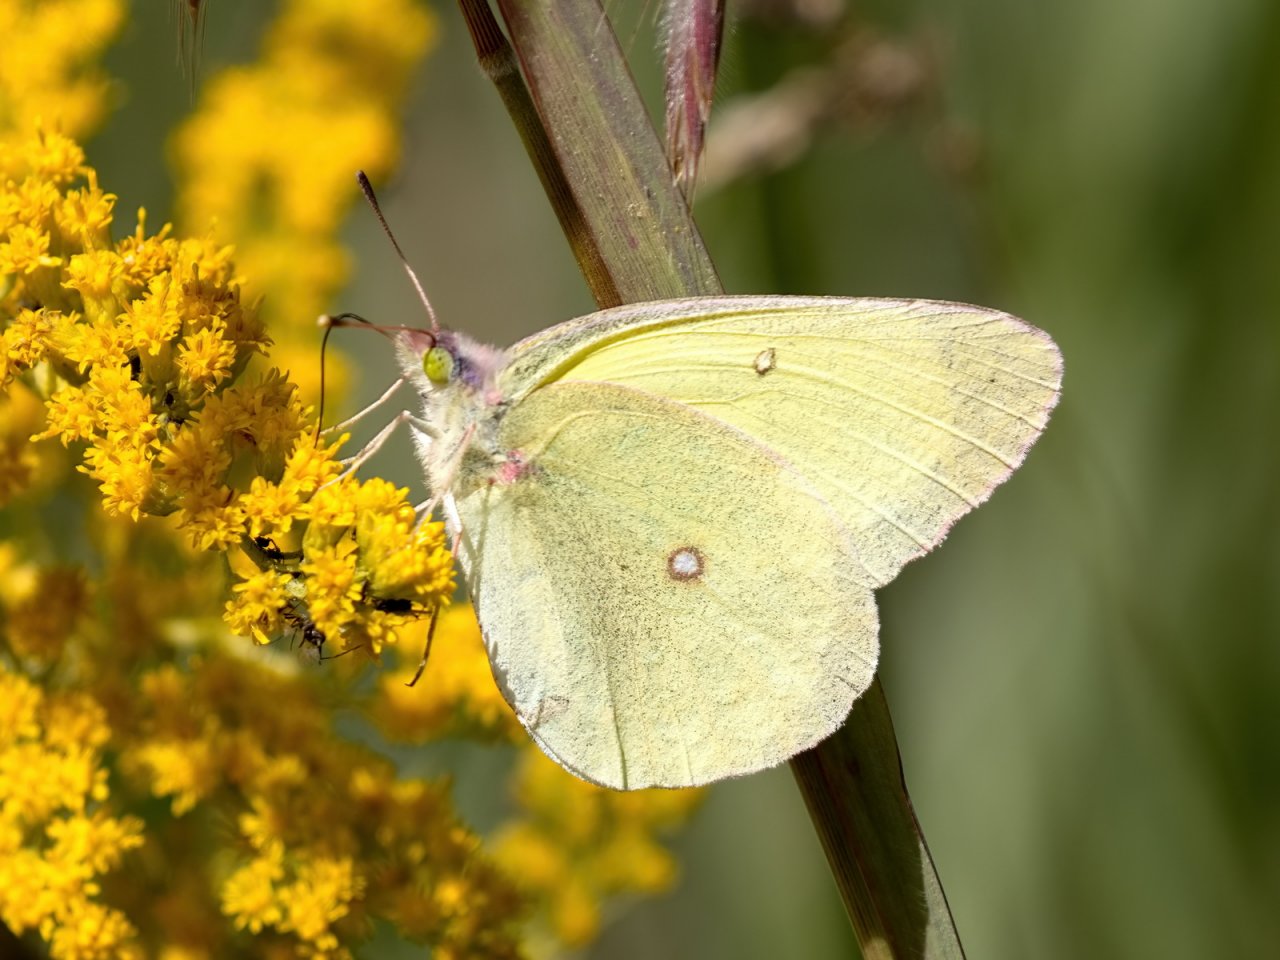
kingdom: Animalia
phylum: Arthropoda
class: Insecta
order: Lepidoptera
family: Pieridae
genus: Colias
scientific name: Colias interior
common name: Pink-edged Sulphur
